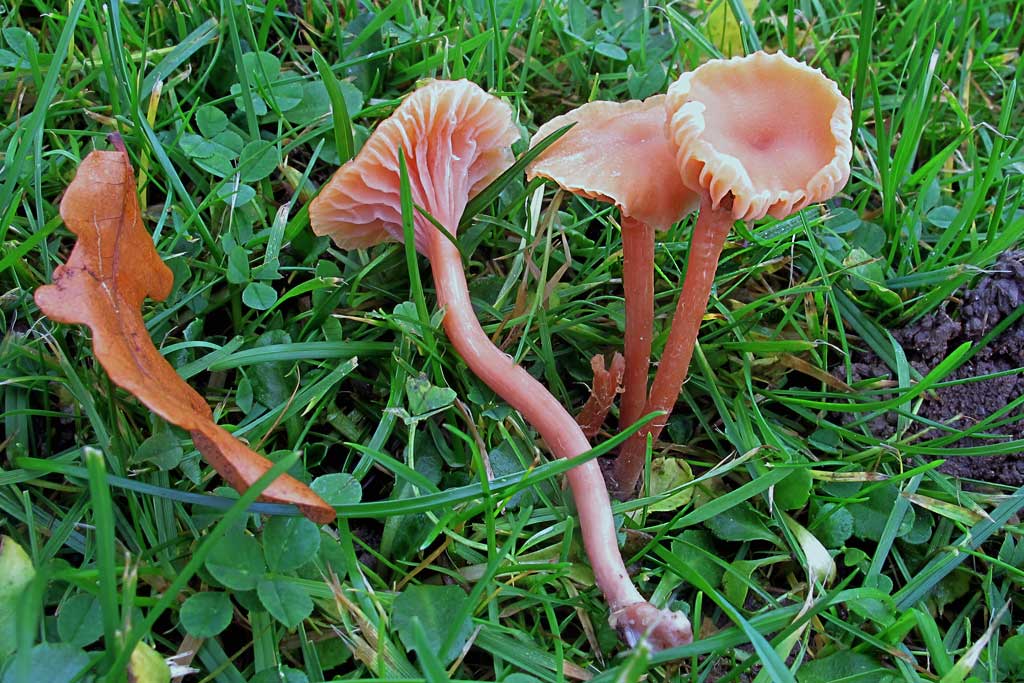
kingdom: Fungi
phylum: Basidiomycota
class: Agaricomycetes
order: Agaricales
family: Hydnangiaceae
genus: Laccaria
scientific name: Laccaria laccata
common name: rød ametysthat
